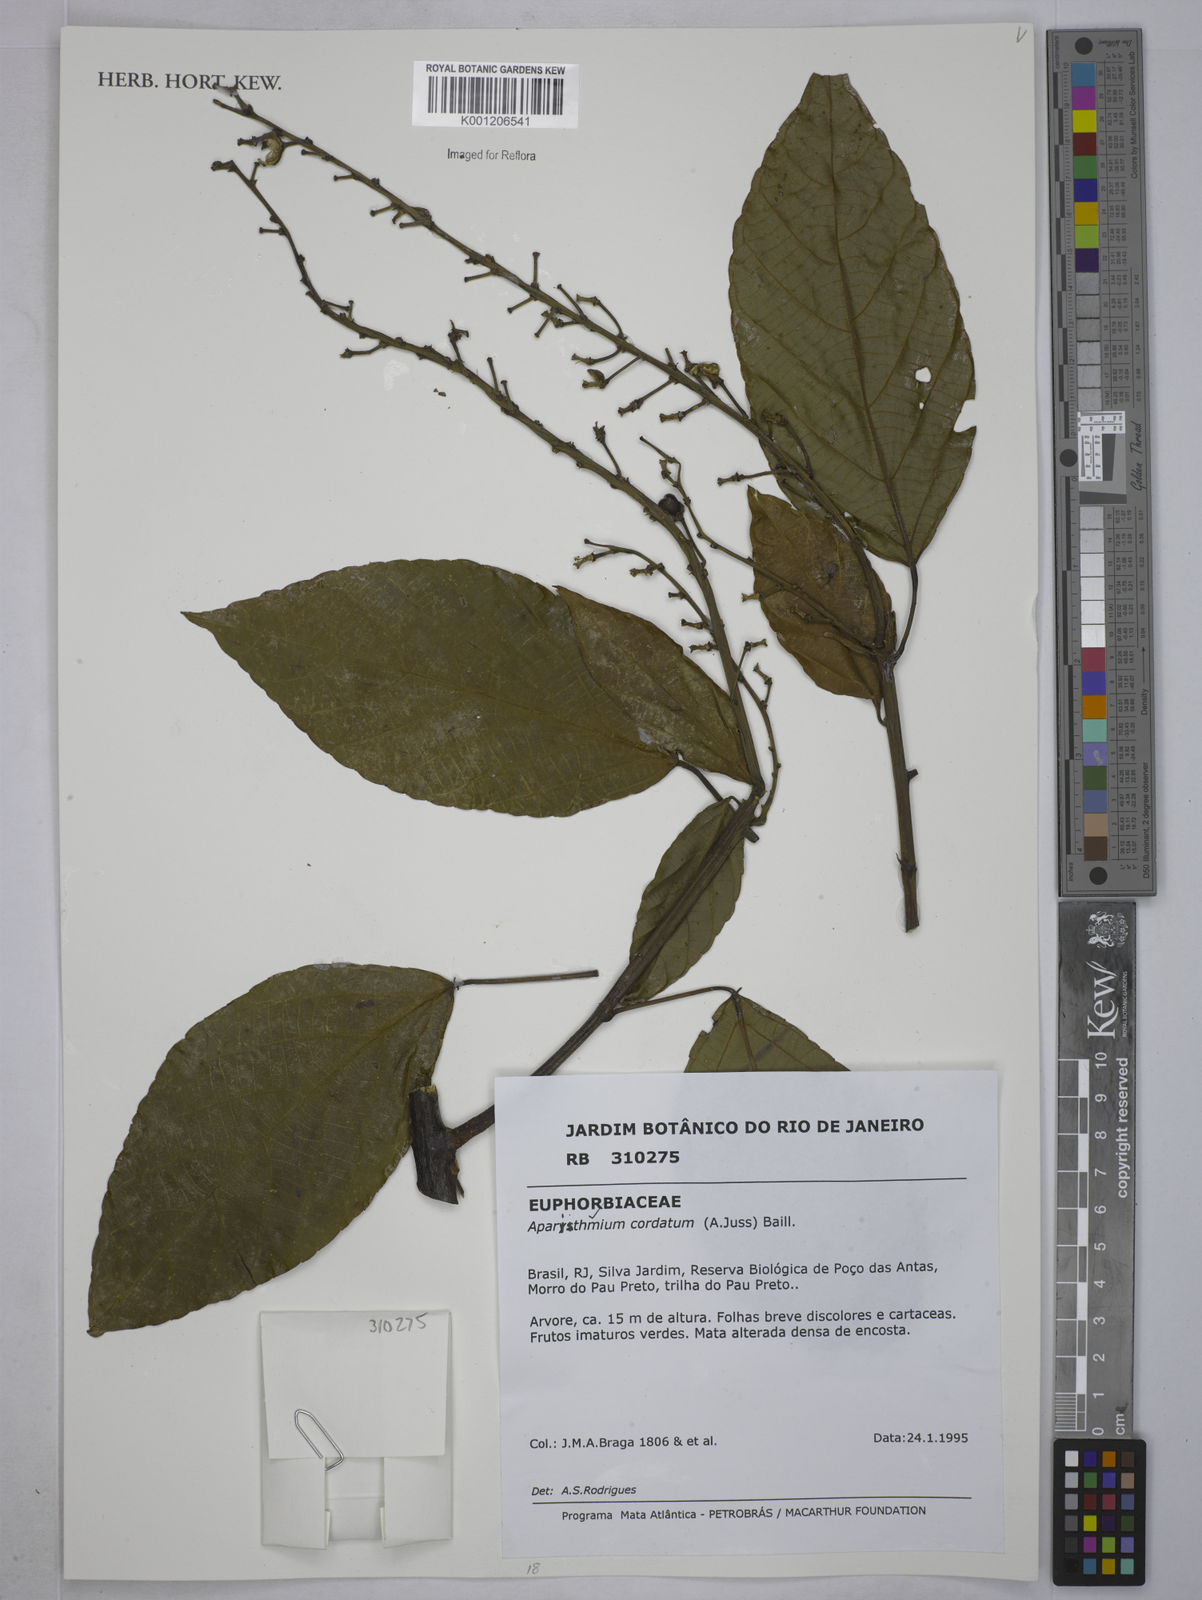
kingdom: Plantae
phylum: Tracheophyta
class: Magnoliopsida
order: Malpighiales
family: Euphorbiaceae
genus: Aparisthmium
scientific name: Aparisthmium cordatum
